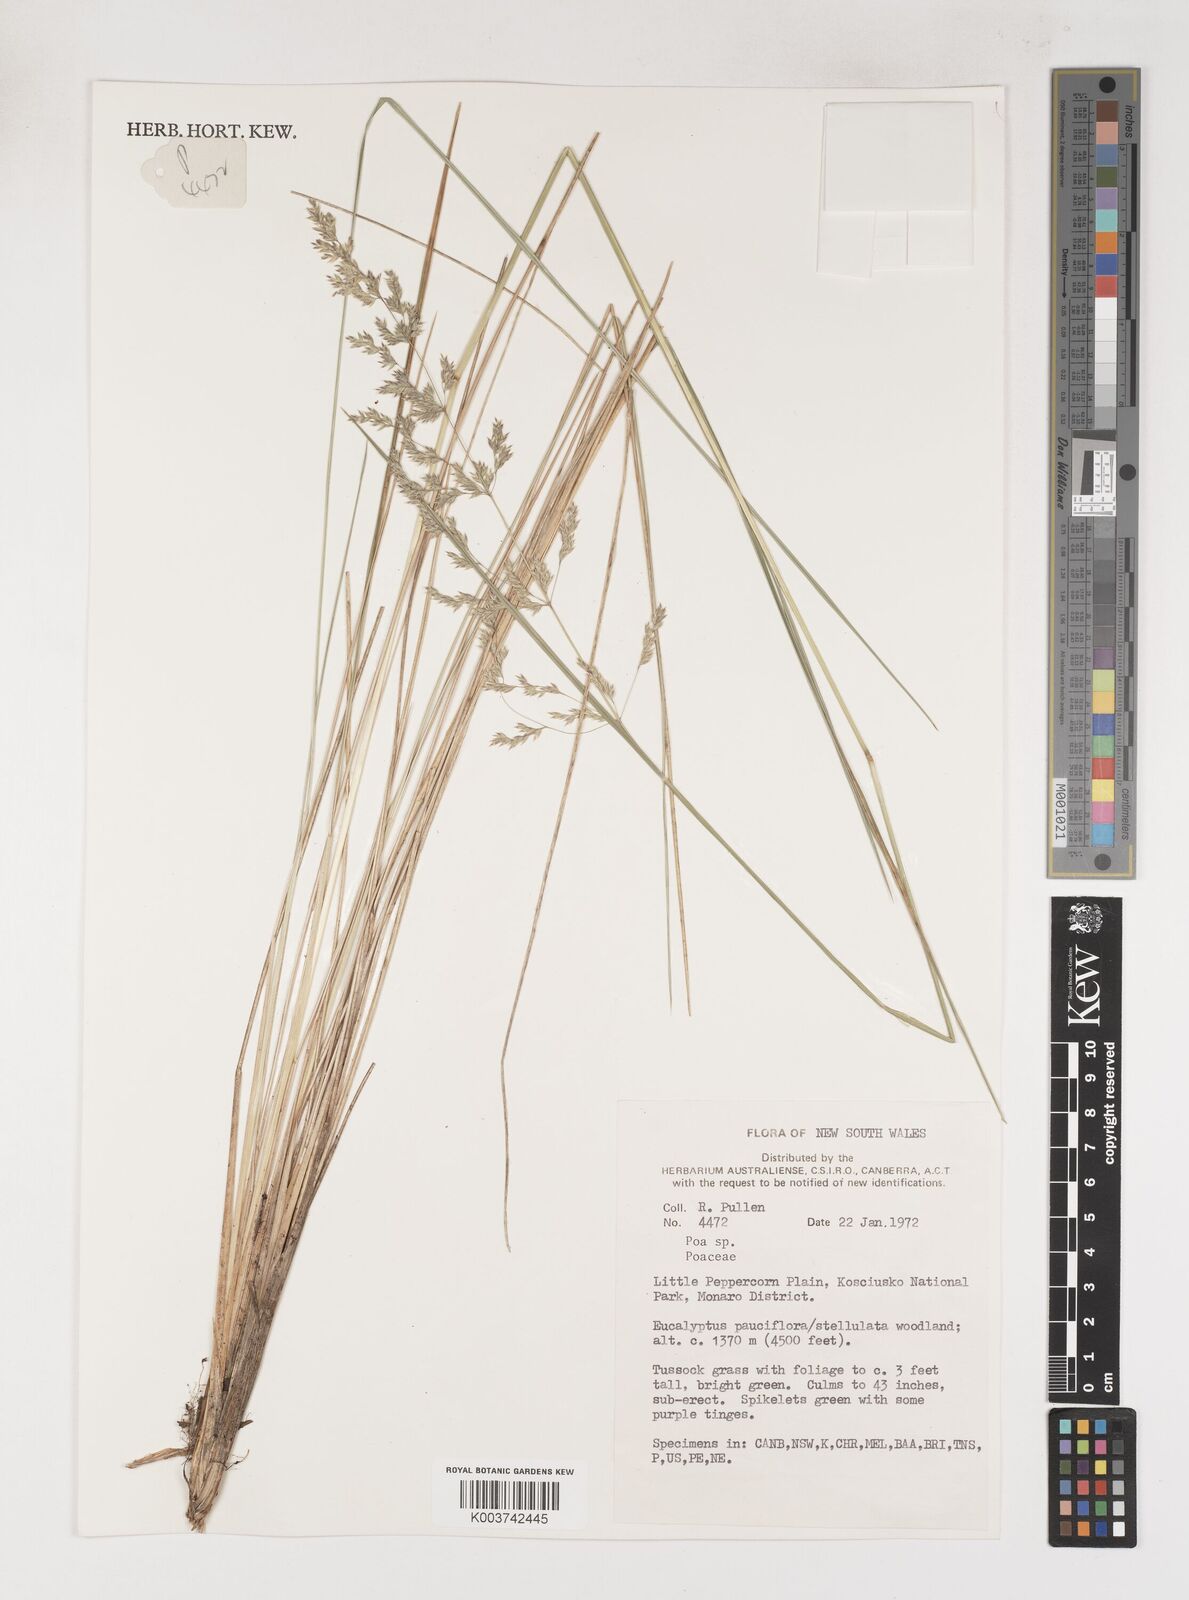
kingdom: Plantae
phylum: Tracheophyta
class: Liliopsida
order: Poales
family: Poaceae
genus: Poa
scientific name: Poa
